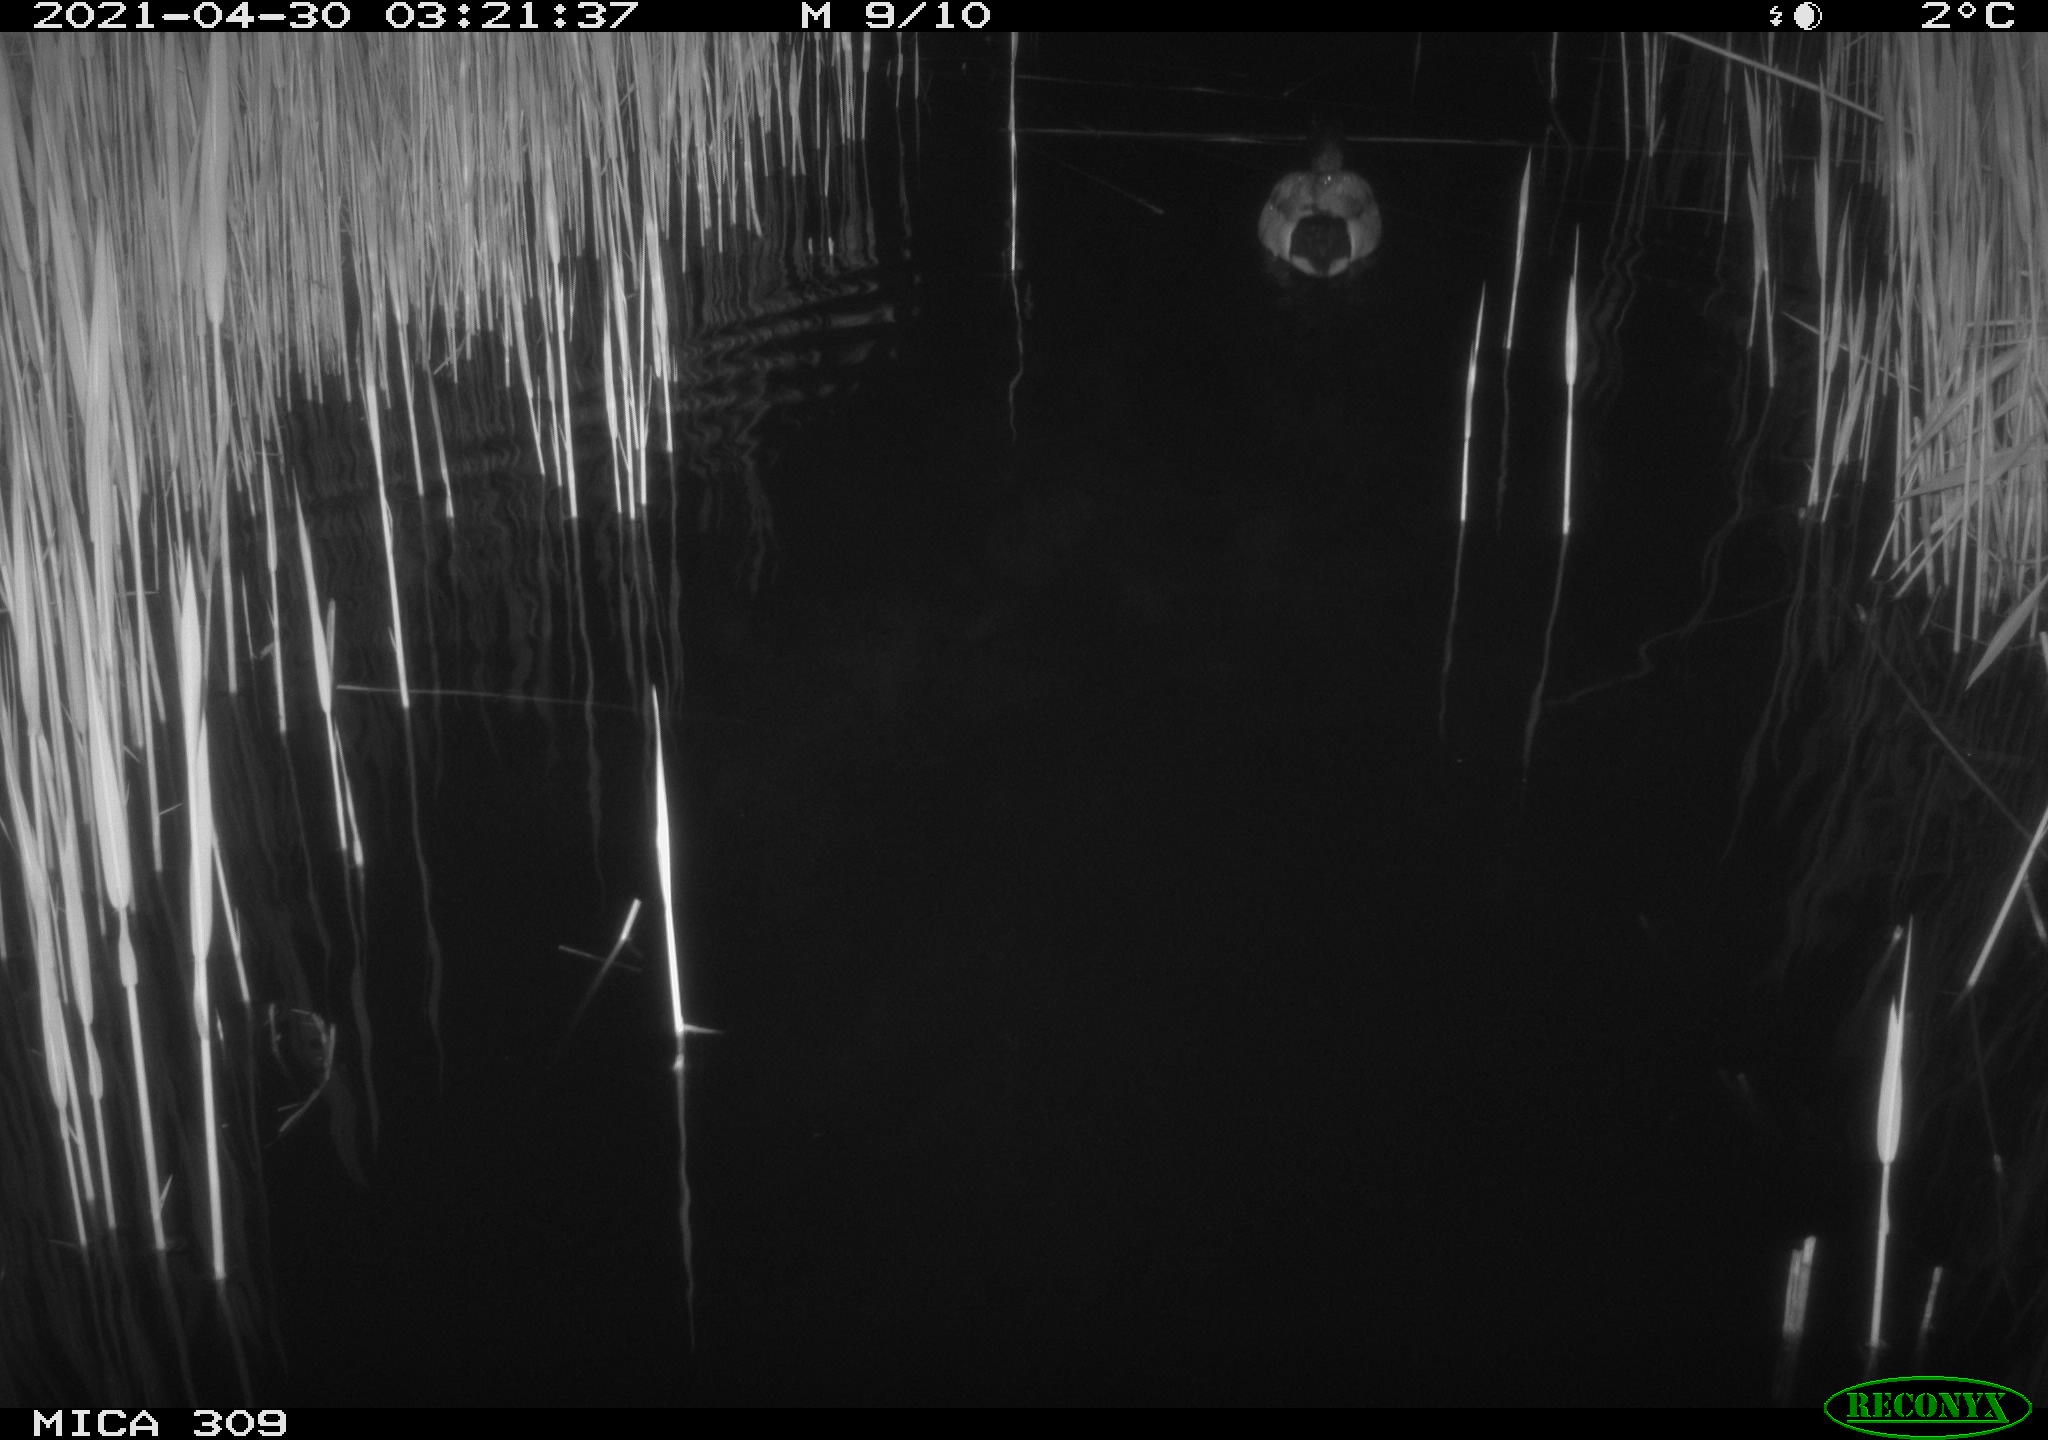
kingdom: Animalia
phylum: Chordata
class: Aves
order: Anseriformes
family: Anatidae
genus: Anas
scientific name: Anas platyrhynchos
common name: Mallard
